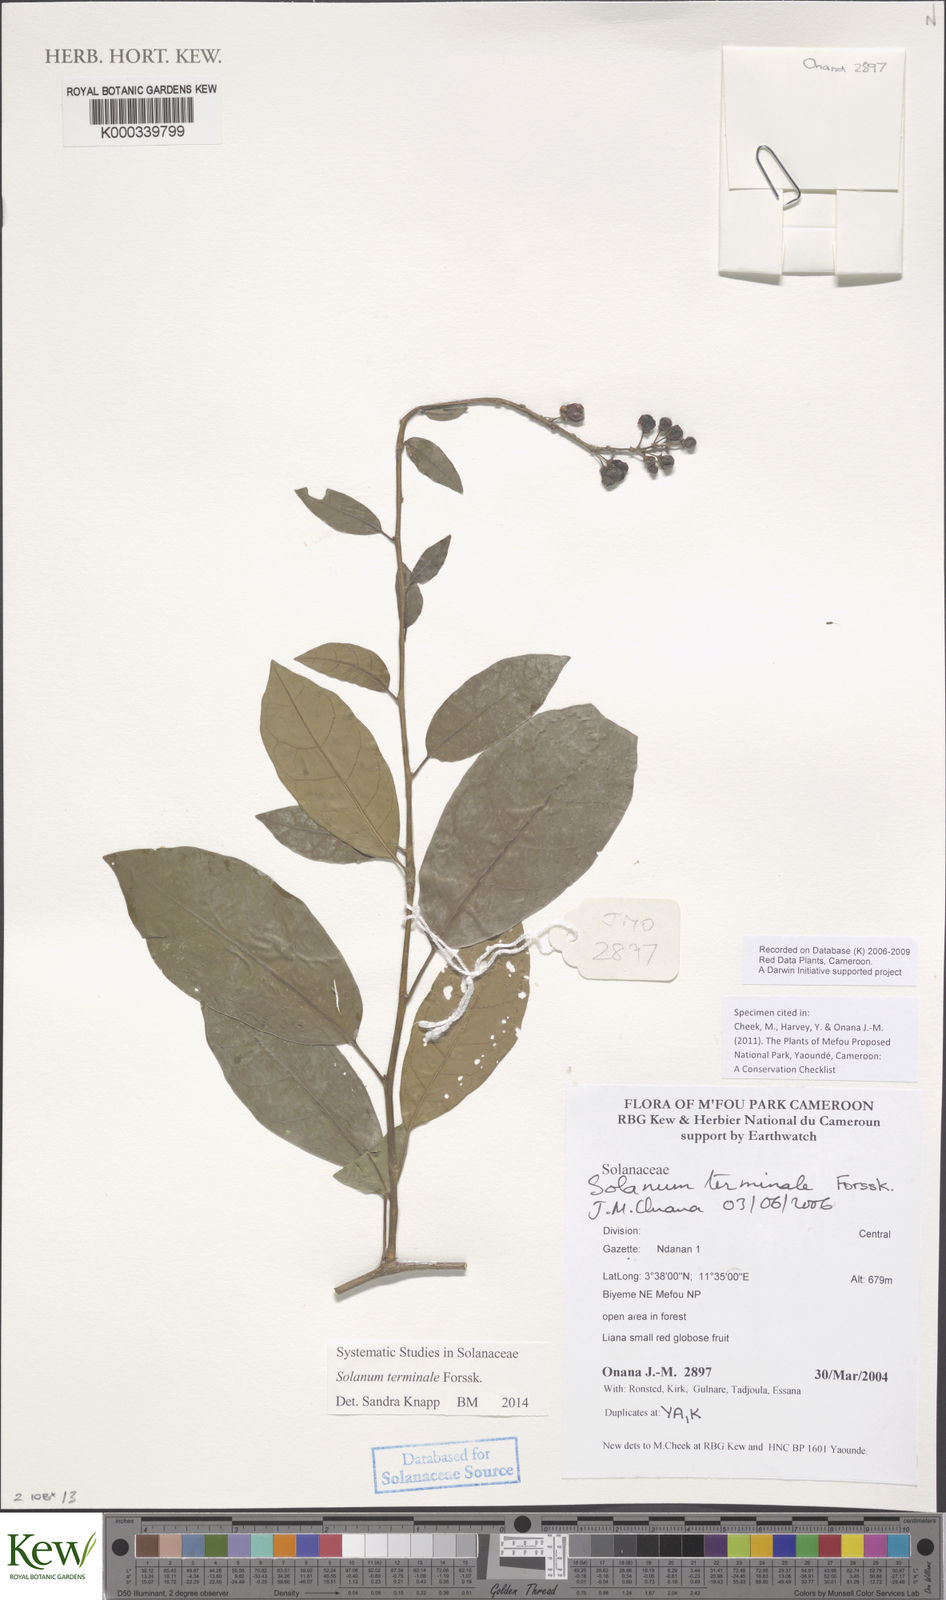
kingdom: Plantae
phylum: Tracheophyta
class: Magnoliopsida
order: Solanales
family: Solanaceae
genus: Solanum
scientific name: Solanum terminale
